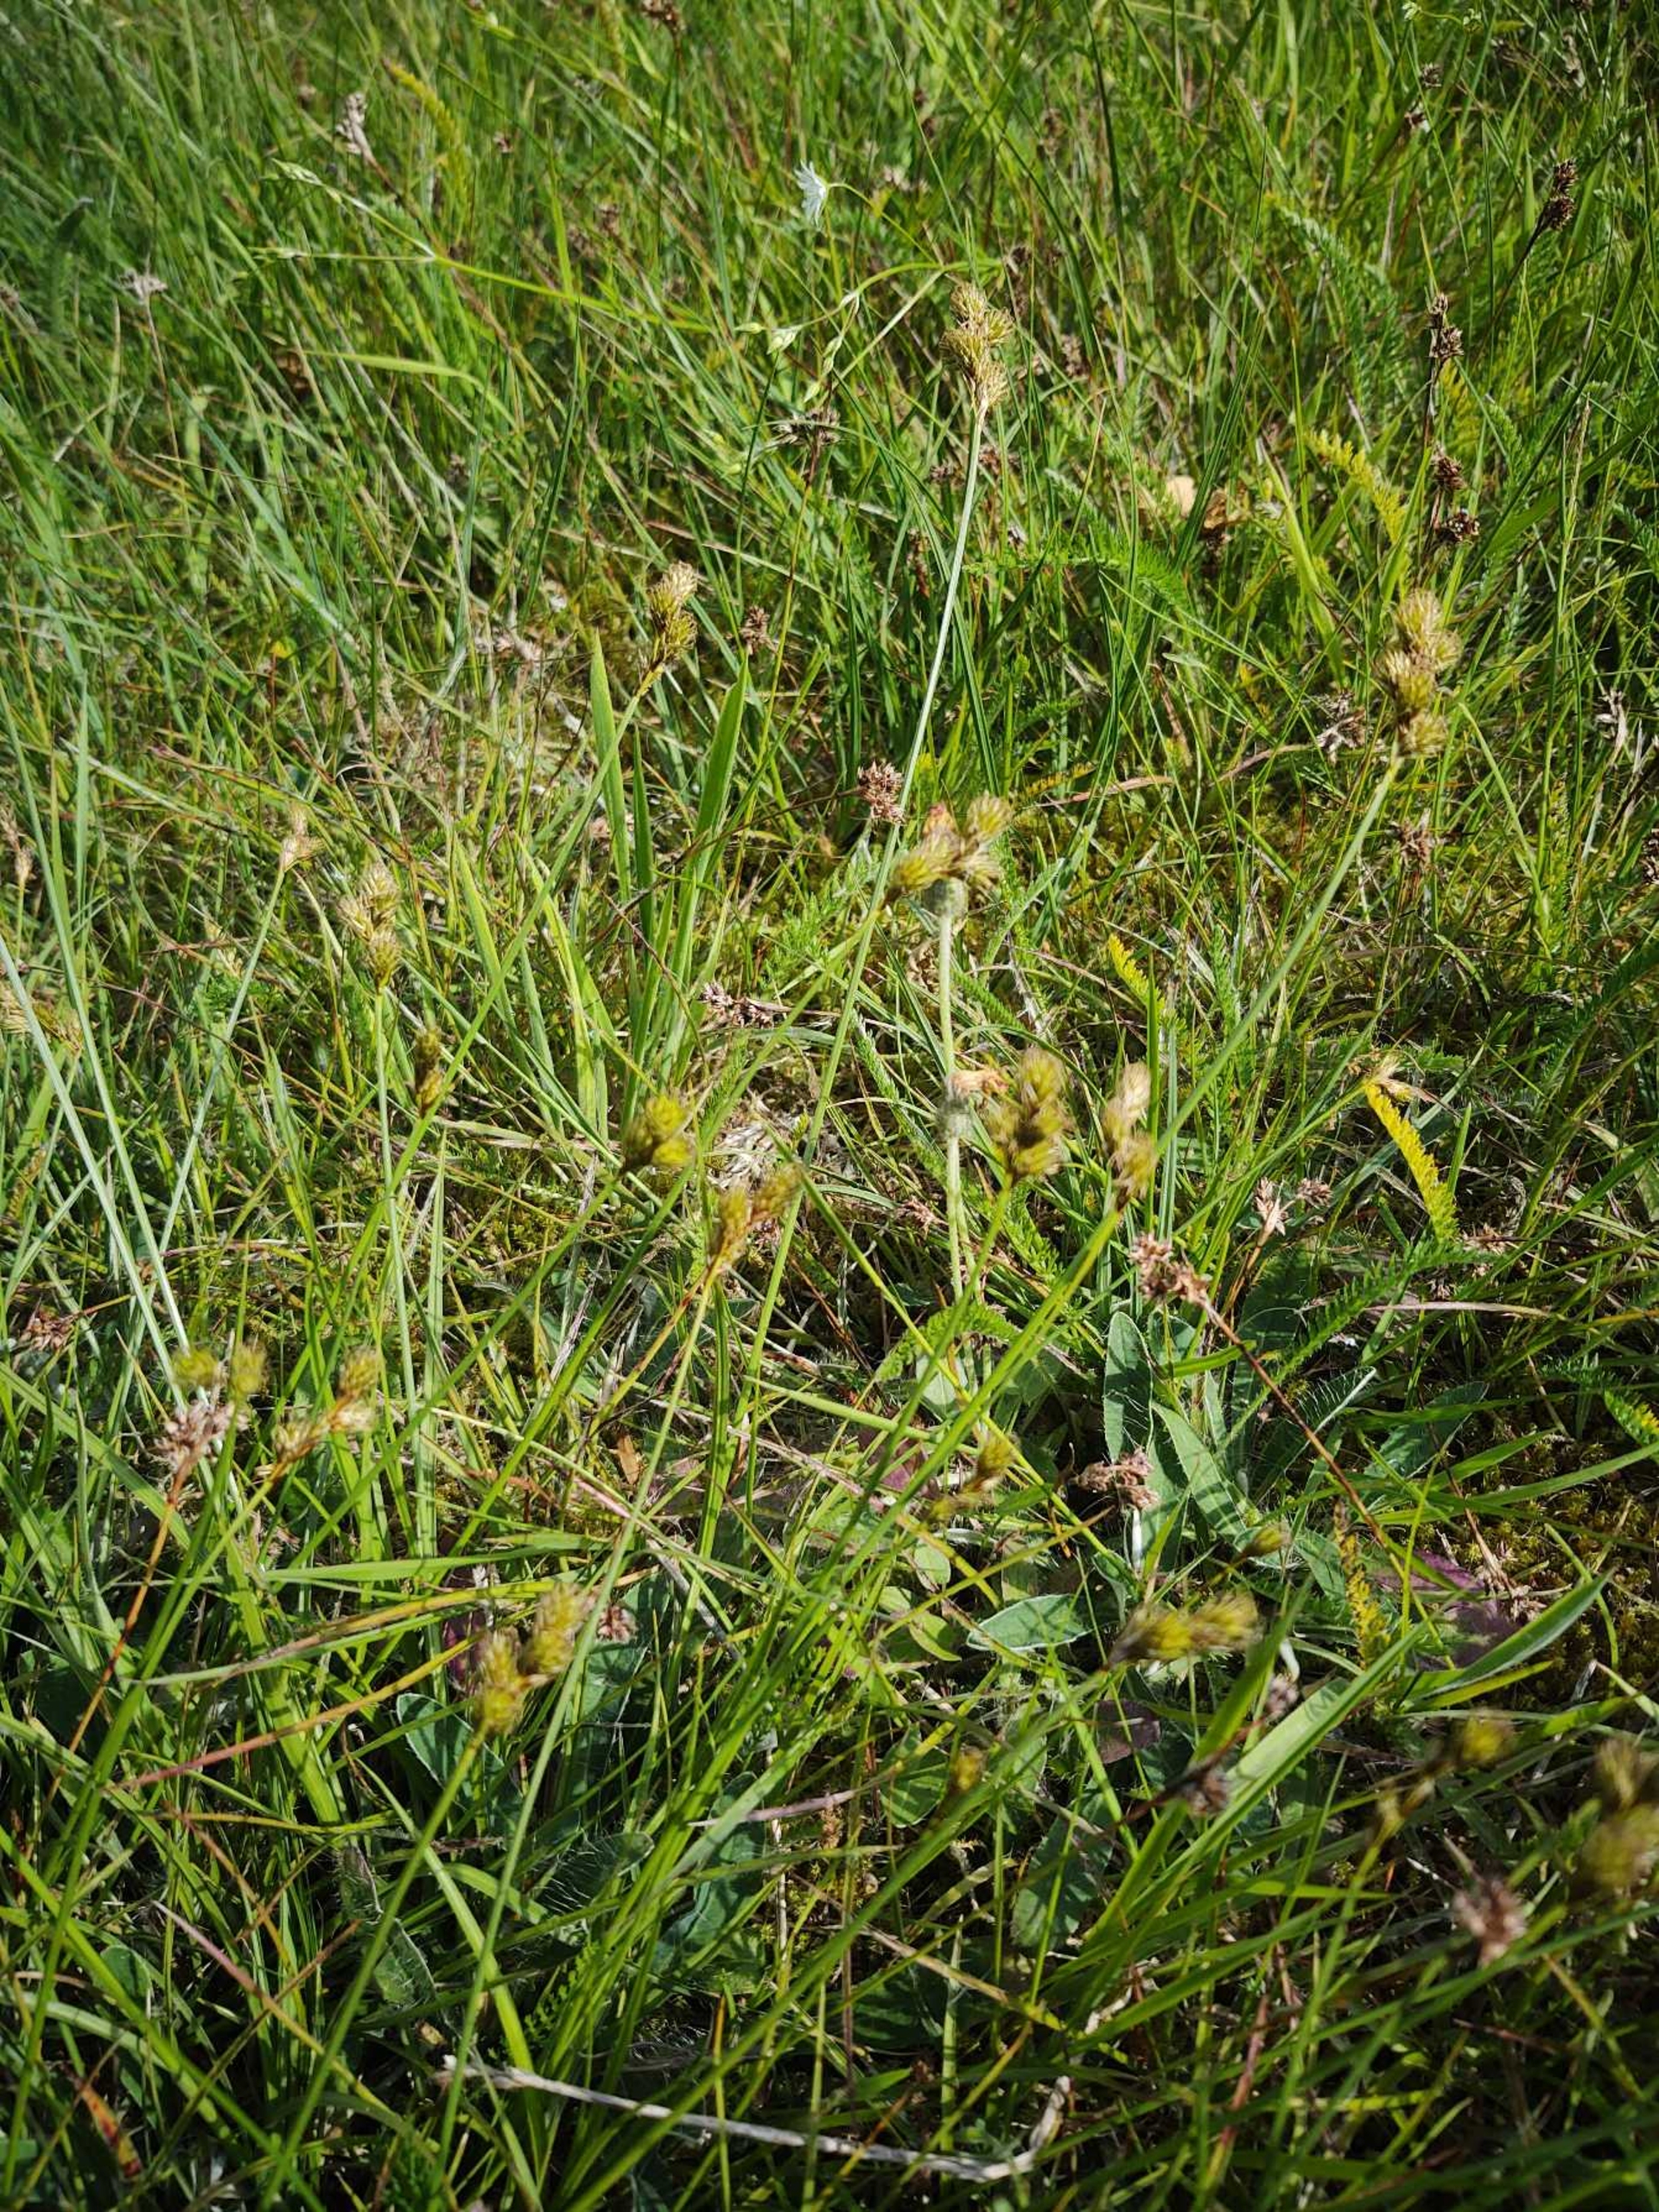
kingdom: Plantae
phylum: Tracheophyta
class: Liliopsida
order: Poales
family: Cyperaceae
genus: Carex
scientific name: Carex leporina
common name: Hare-star
